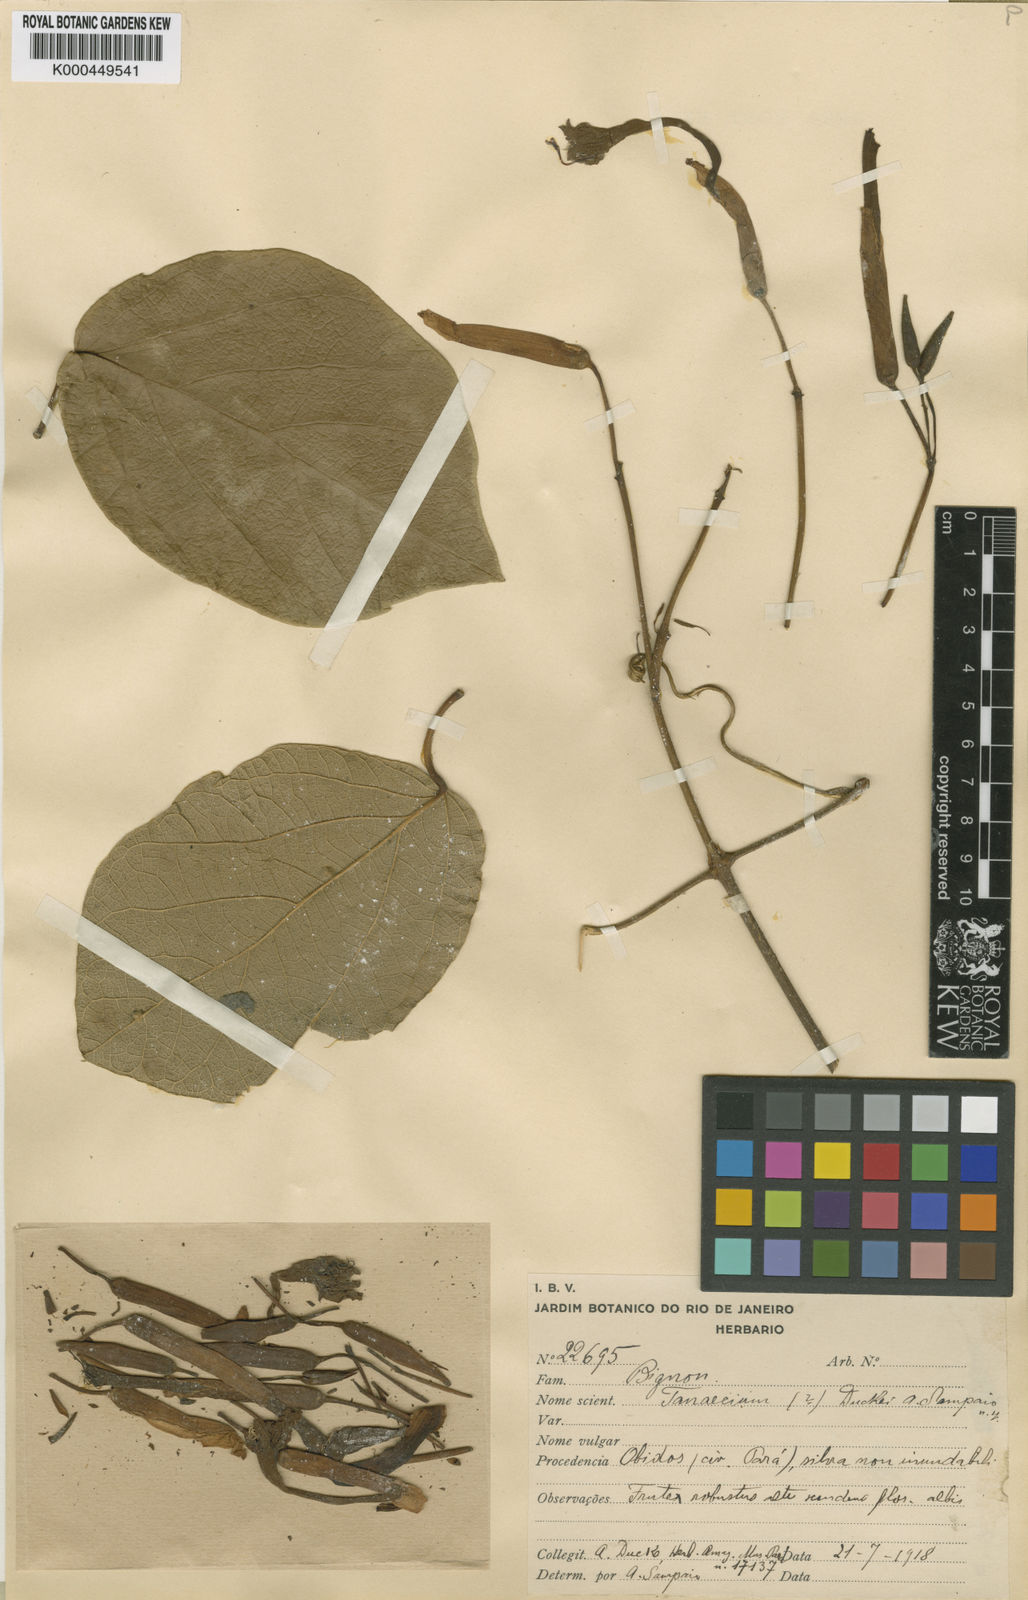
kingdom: Plantae
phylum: Tracheophyta
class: Magnoliopsida
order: Lamiales
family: Bignoniaceae
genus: Tanaecium
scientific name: Tanaecium duckei
